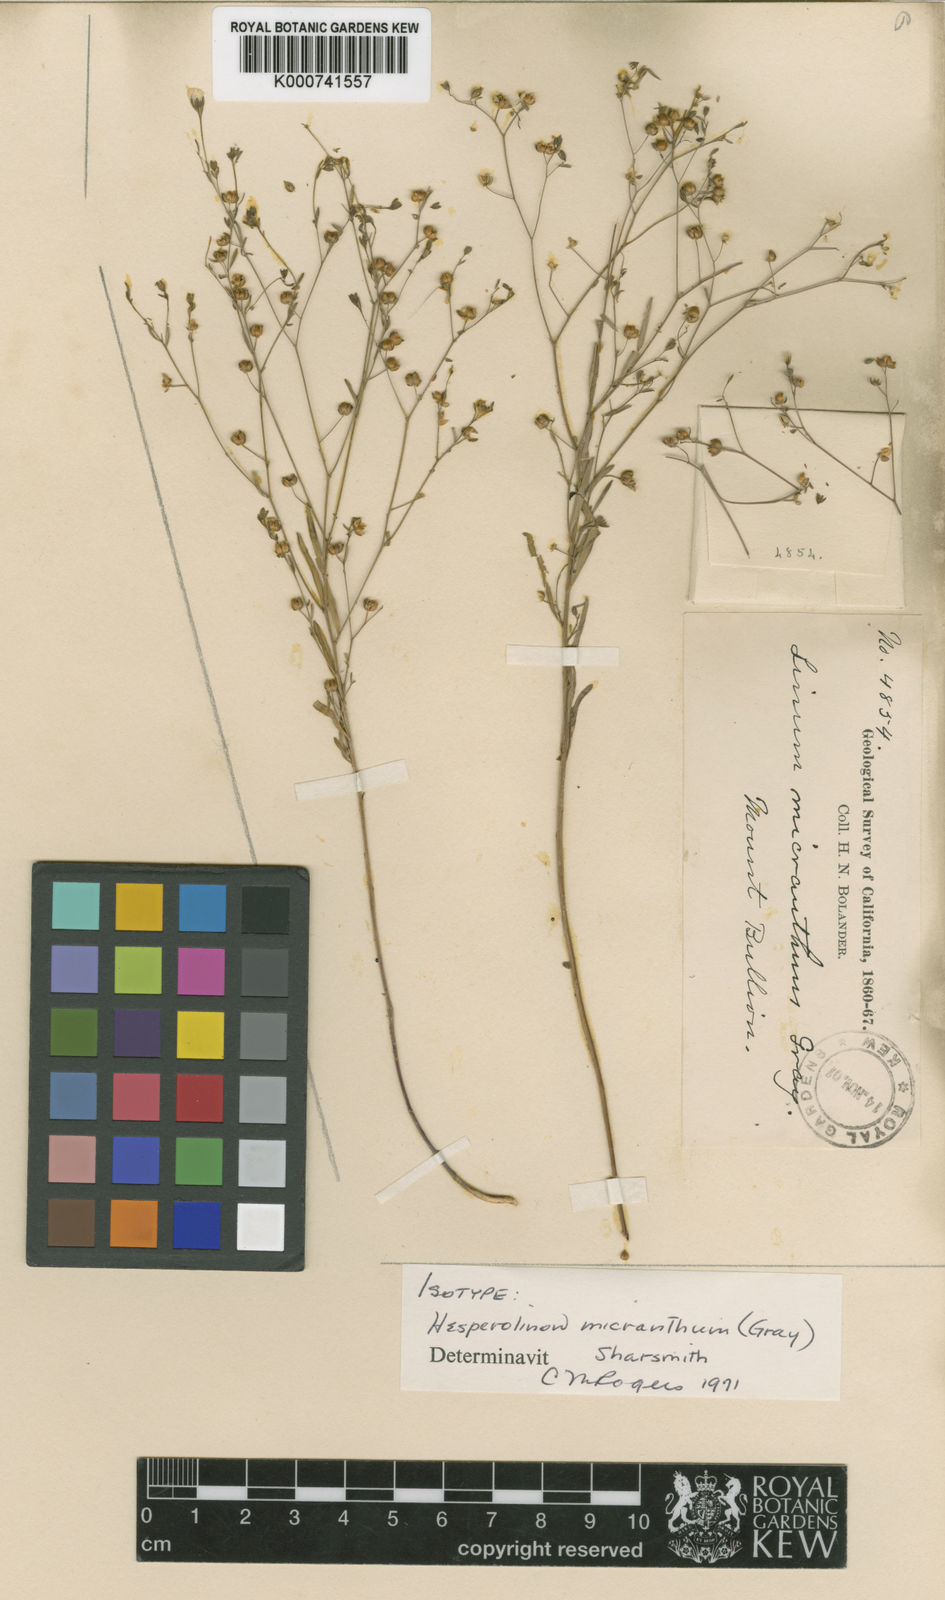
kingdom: Plantae
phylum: Tracheophyta
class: Magnoliopsida
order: Malpighiales
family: Linaceae
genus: Hesperolinon
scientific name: Hesperolinon micranthum
